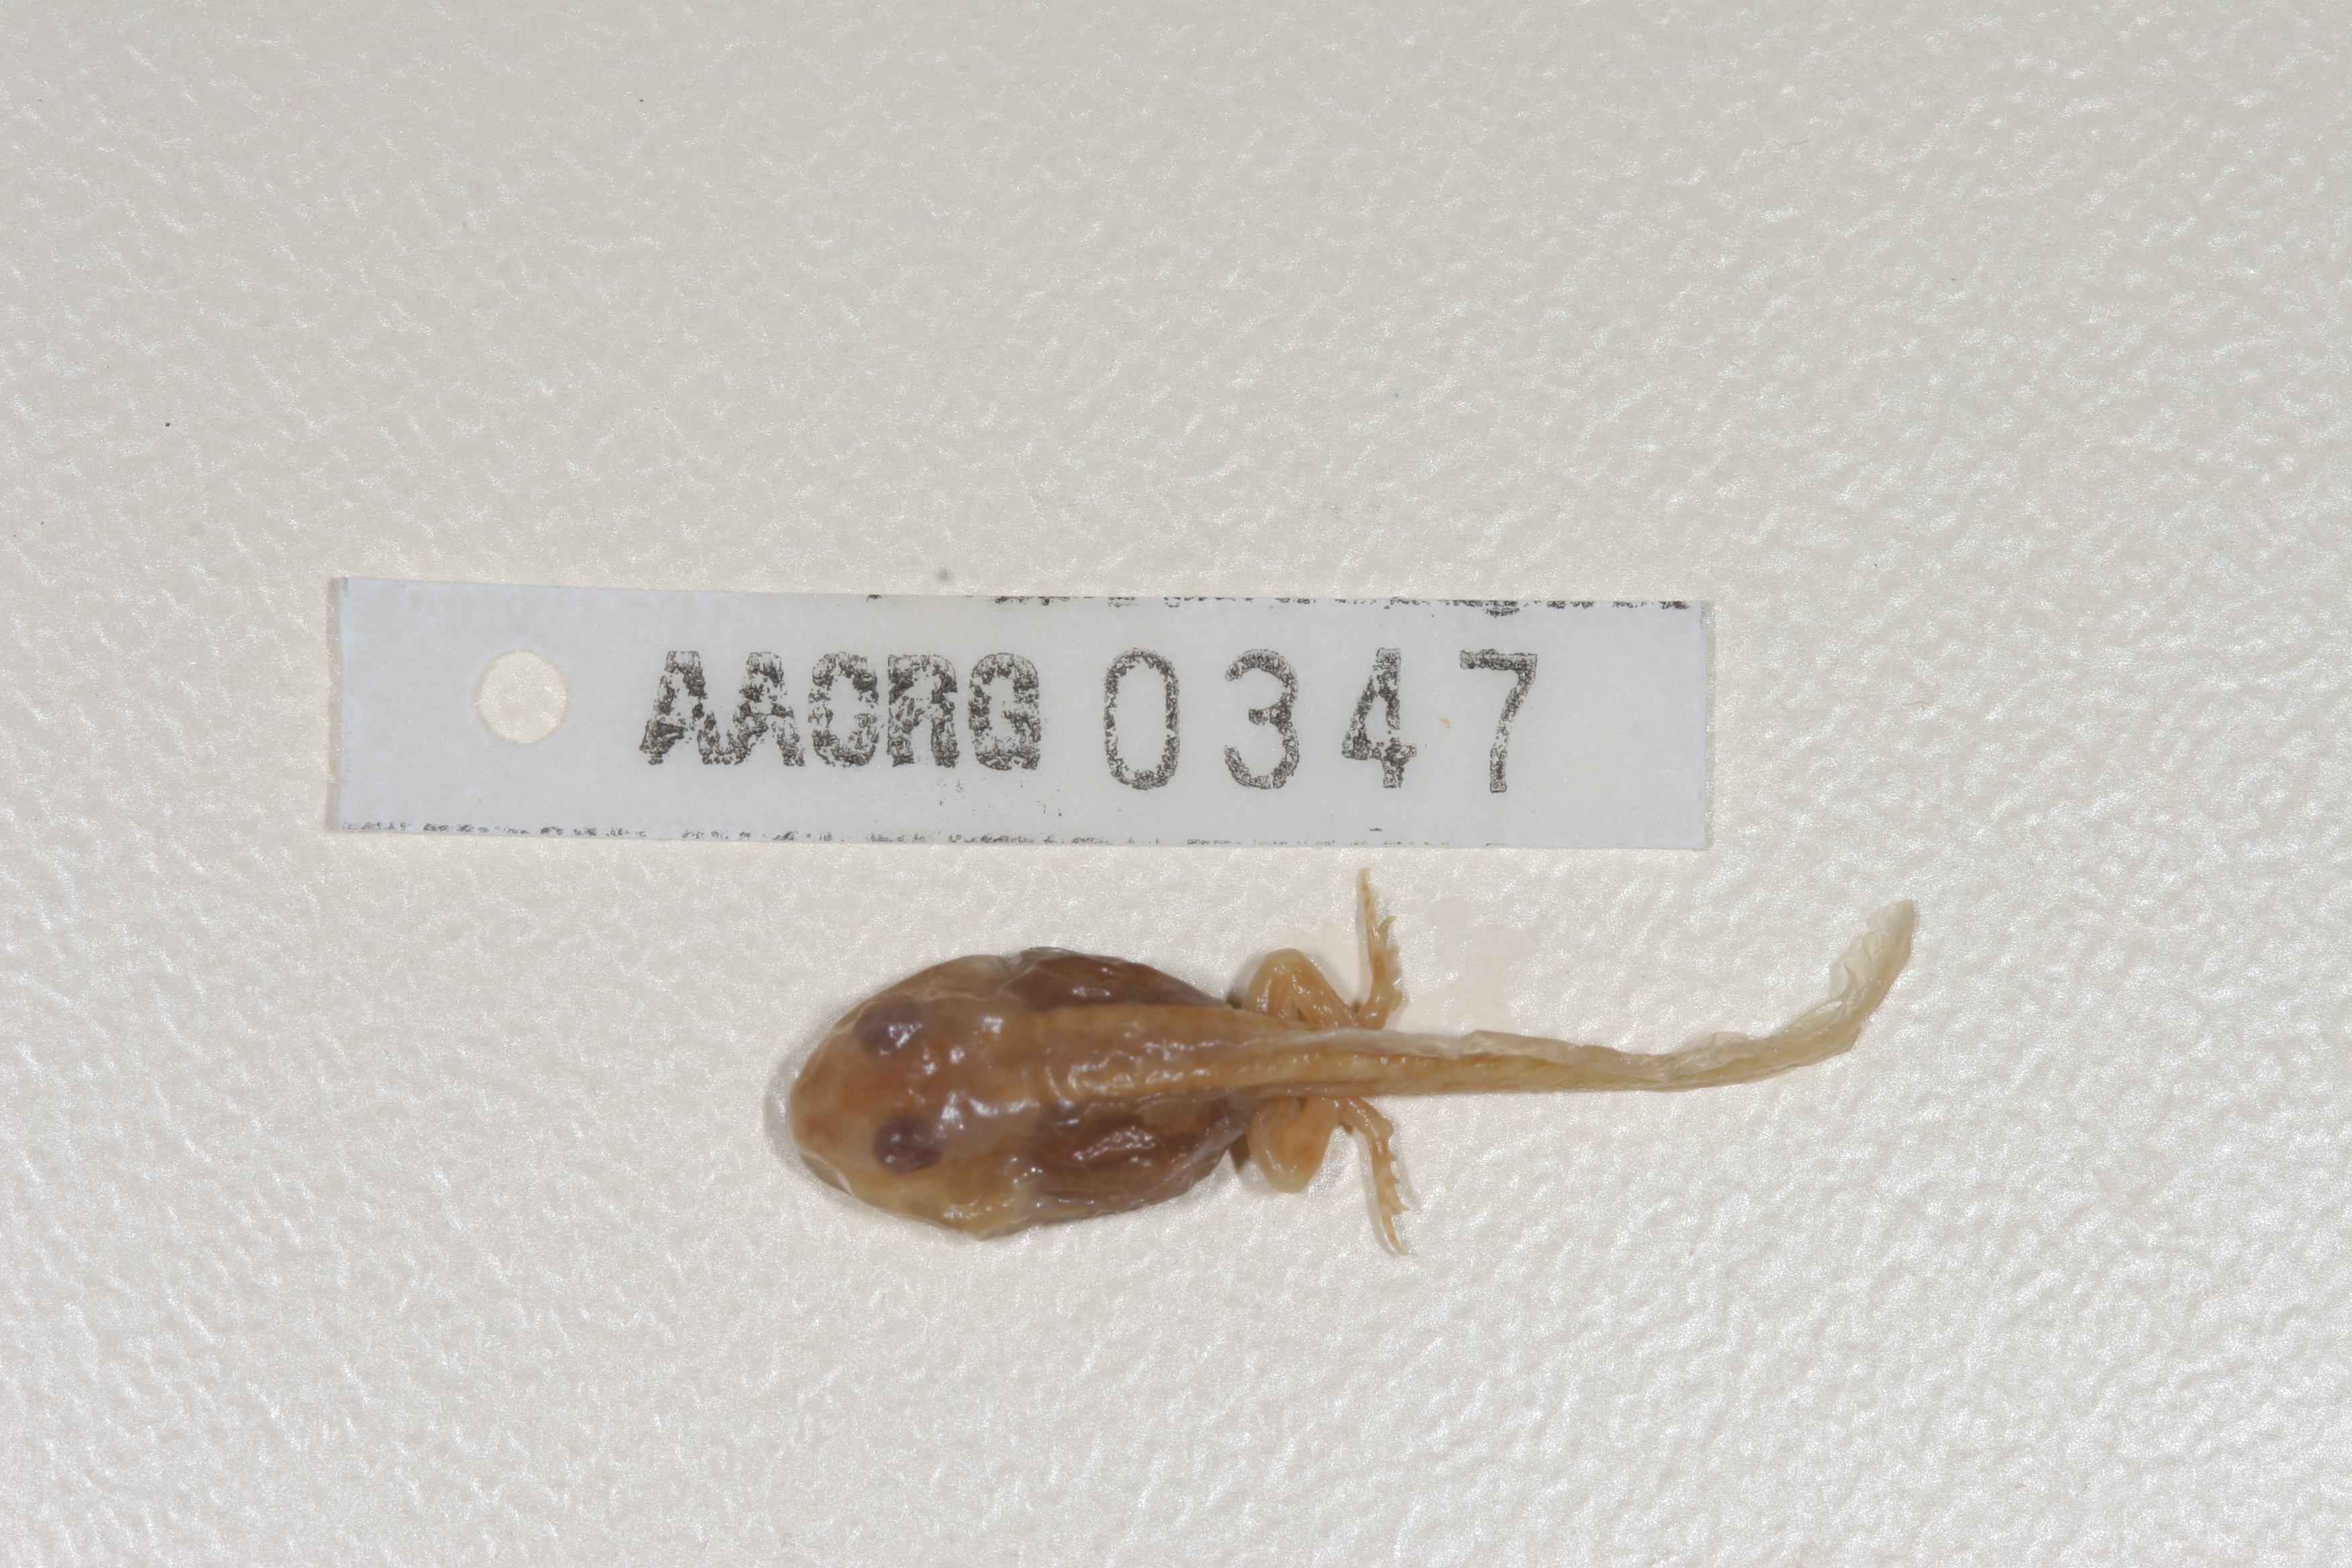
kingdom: Animalia
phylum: Chordata
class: Amphibia
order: Anura
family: Pyxicephalidae
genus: Tomopterna
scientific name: Tomopterna cryptotis
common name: Catequero bullfrog
